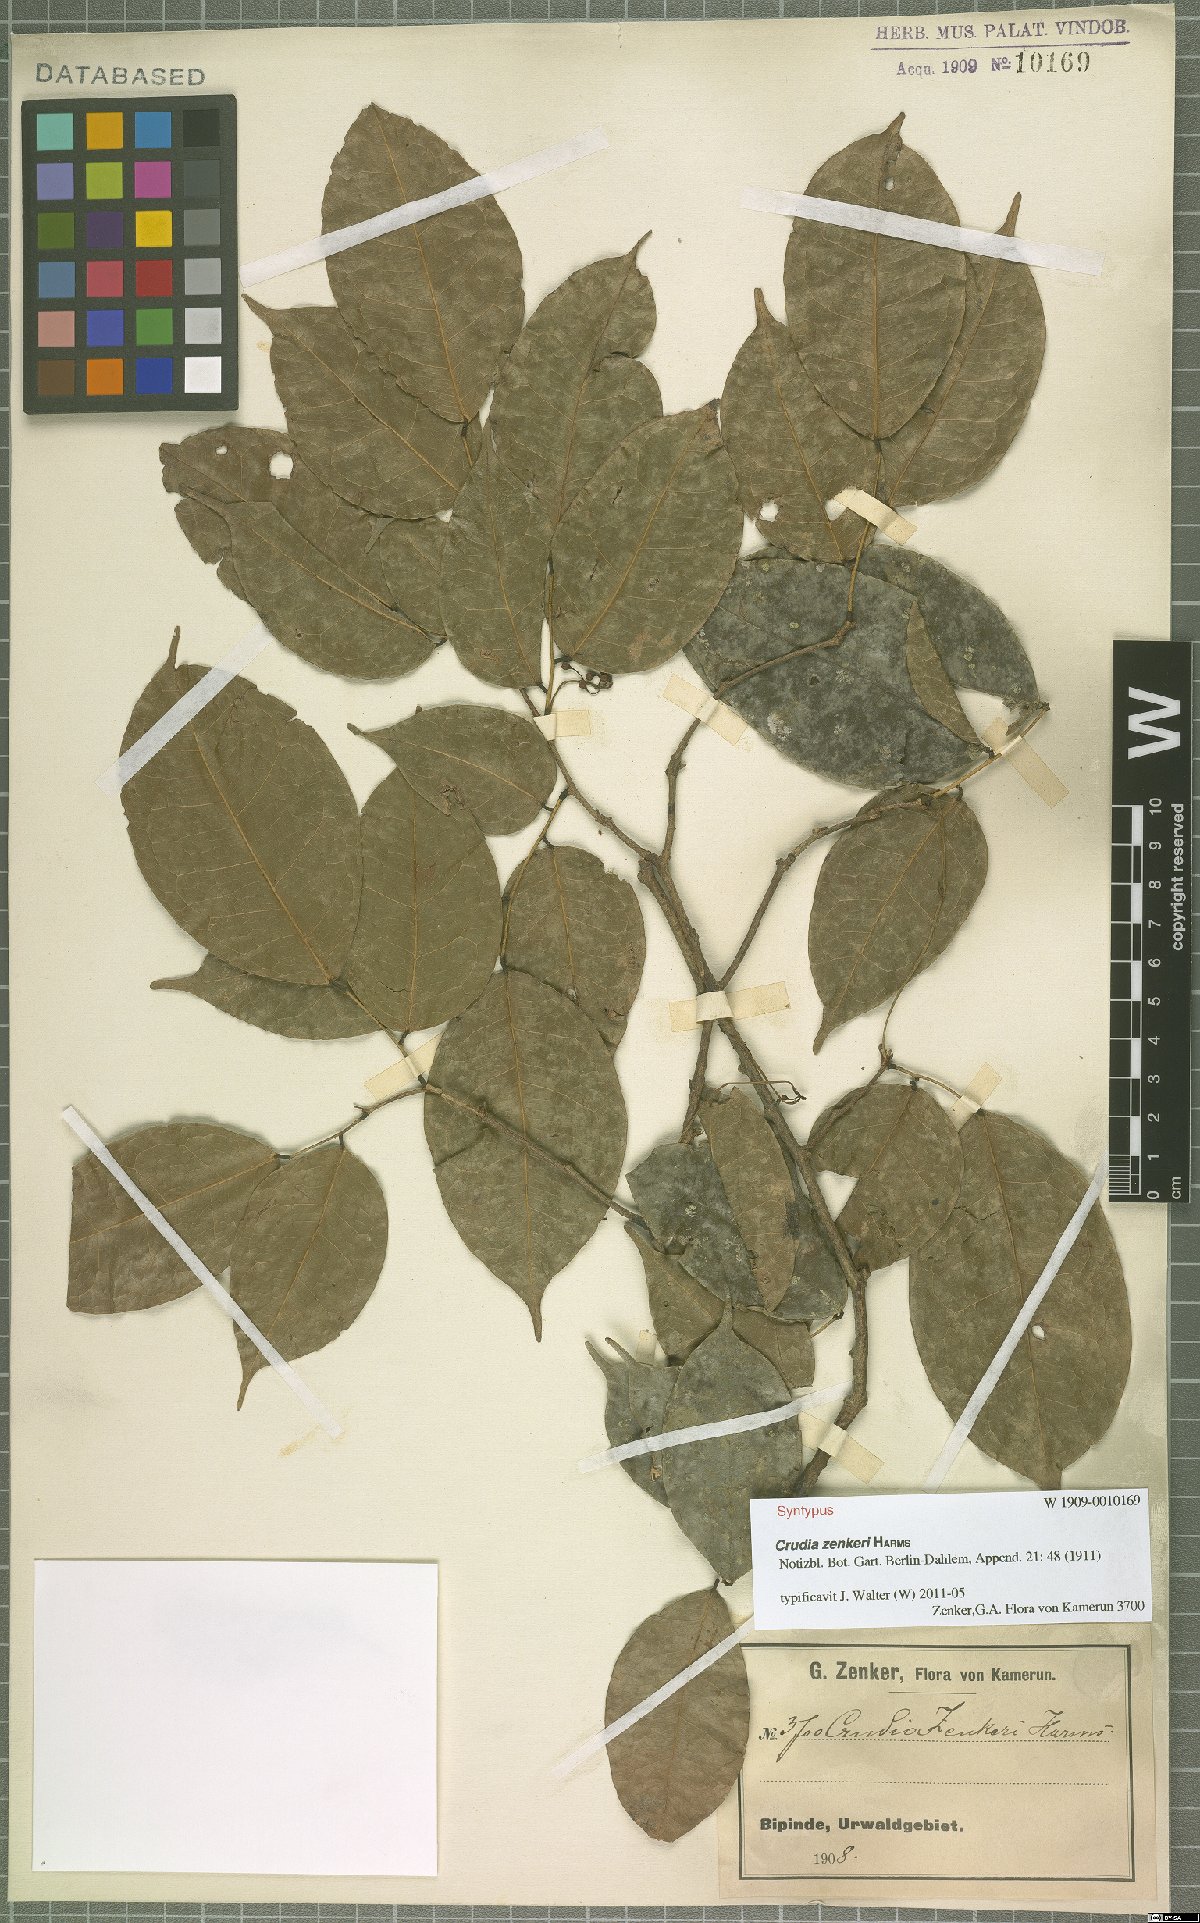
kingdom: Plantae
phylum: Tracheophyta
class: Magnoliopsida
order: Fabales
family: Fabaceae
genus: Crudia
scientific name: Crudia zenkeri
